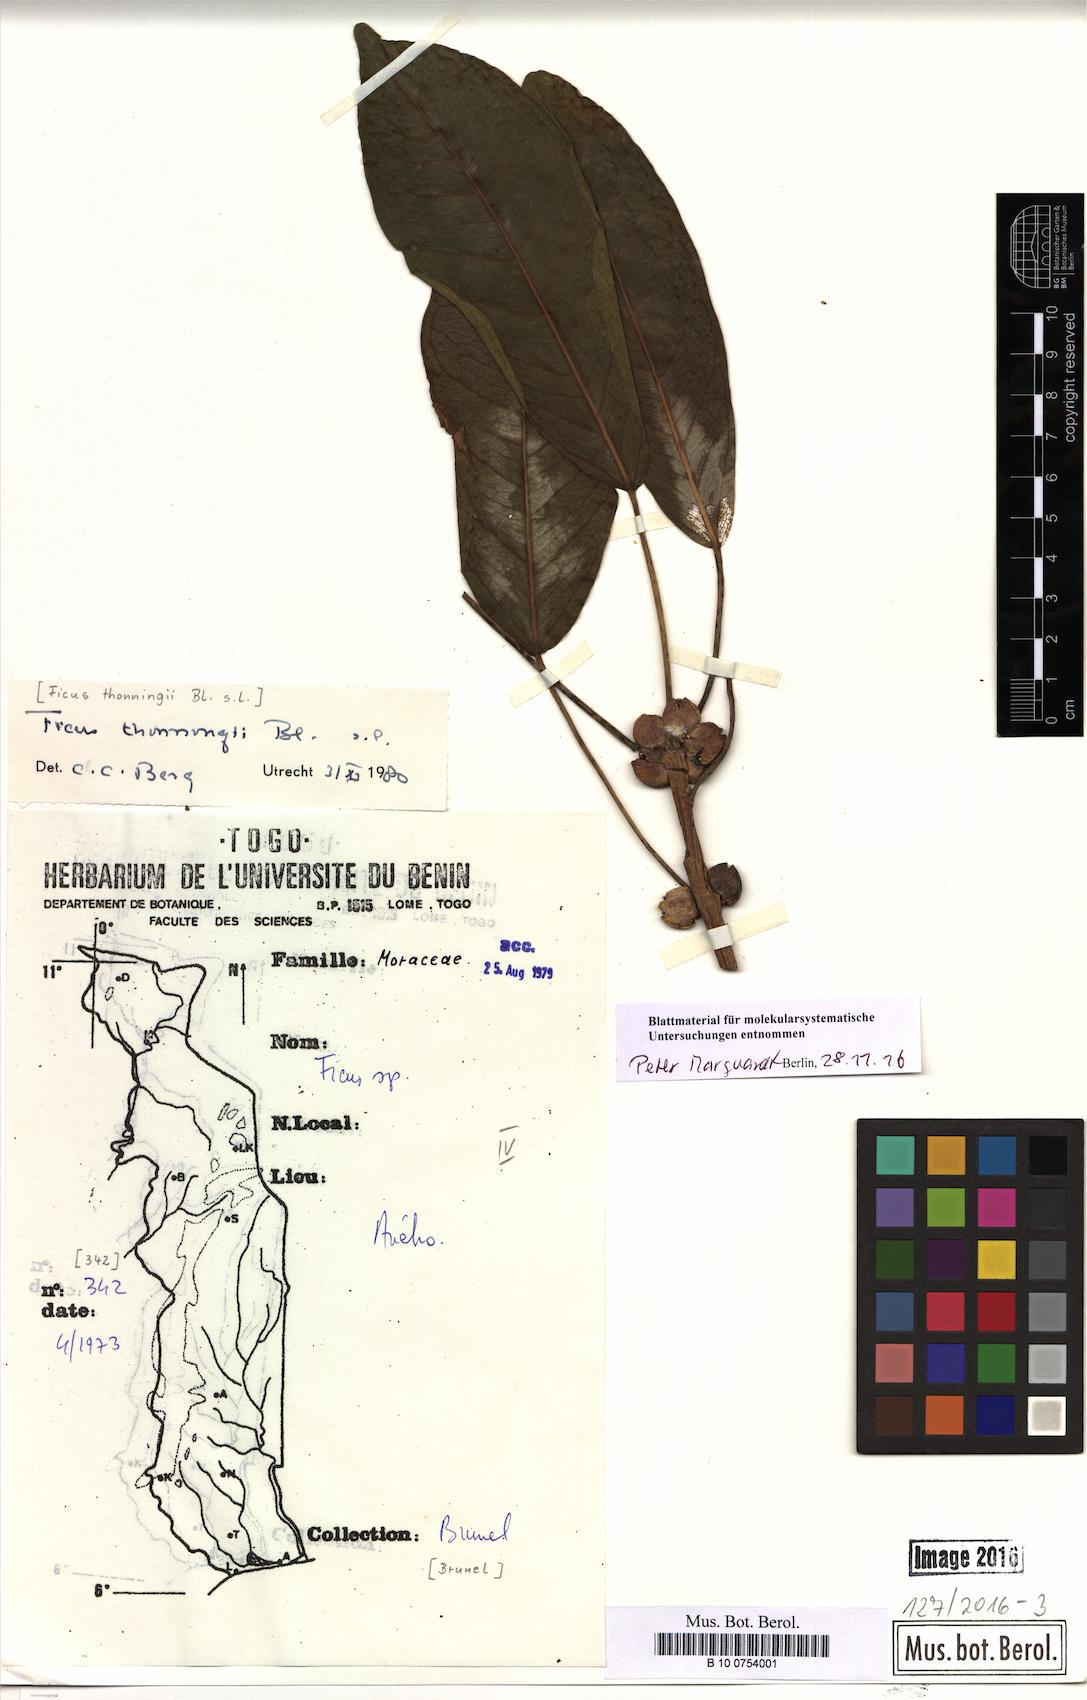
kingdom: Plantae
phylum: Tracheophyta
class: Magnoliopsida
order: Rosales
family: Moraceae
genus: Ficus
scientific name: Ficus thonningii
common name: Fig
